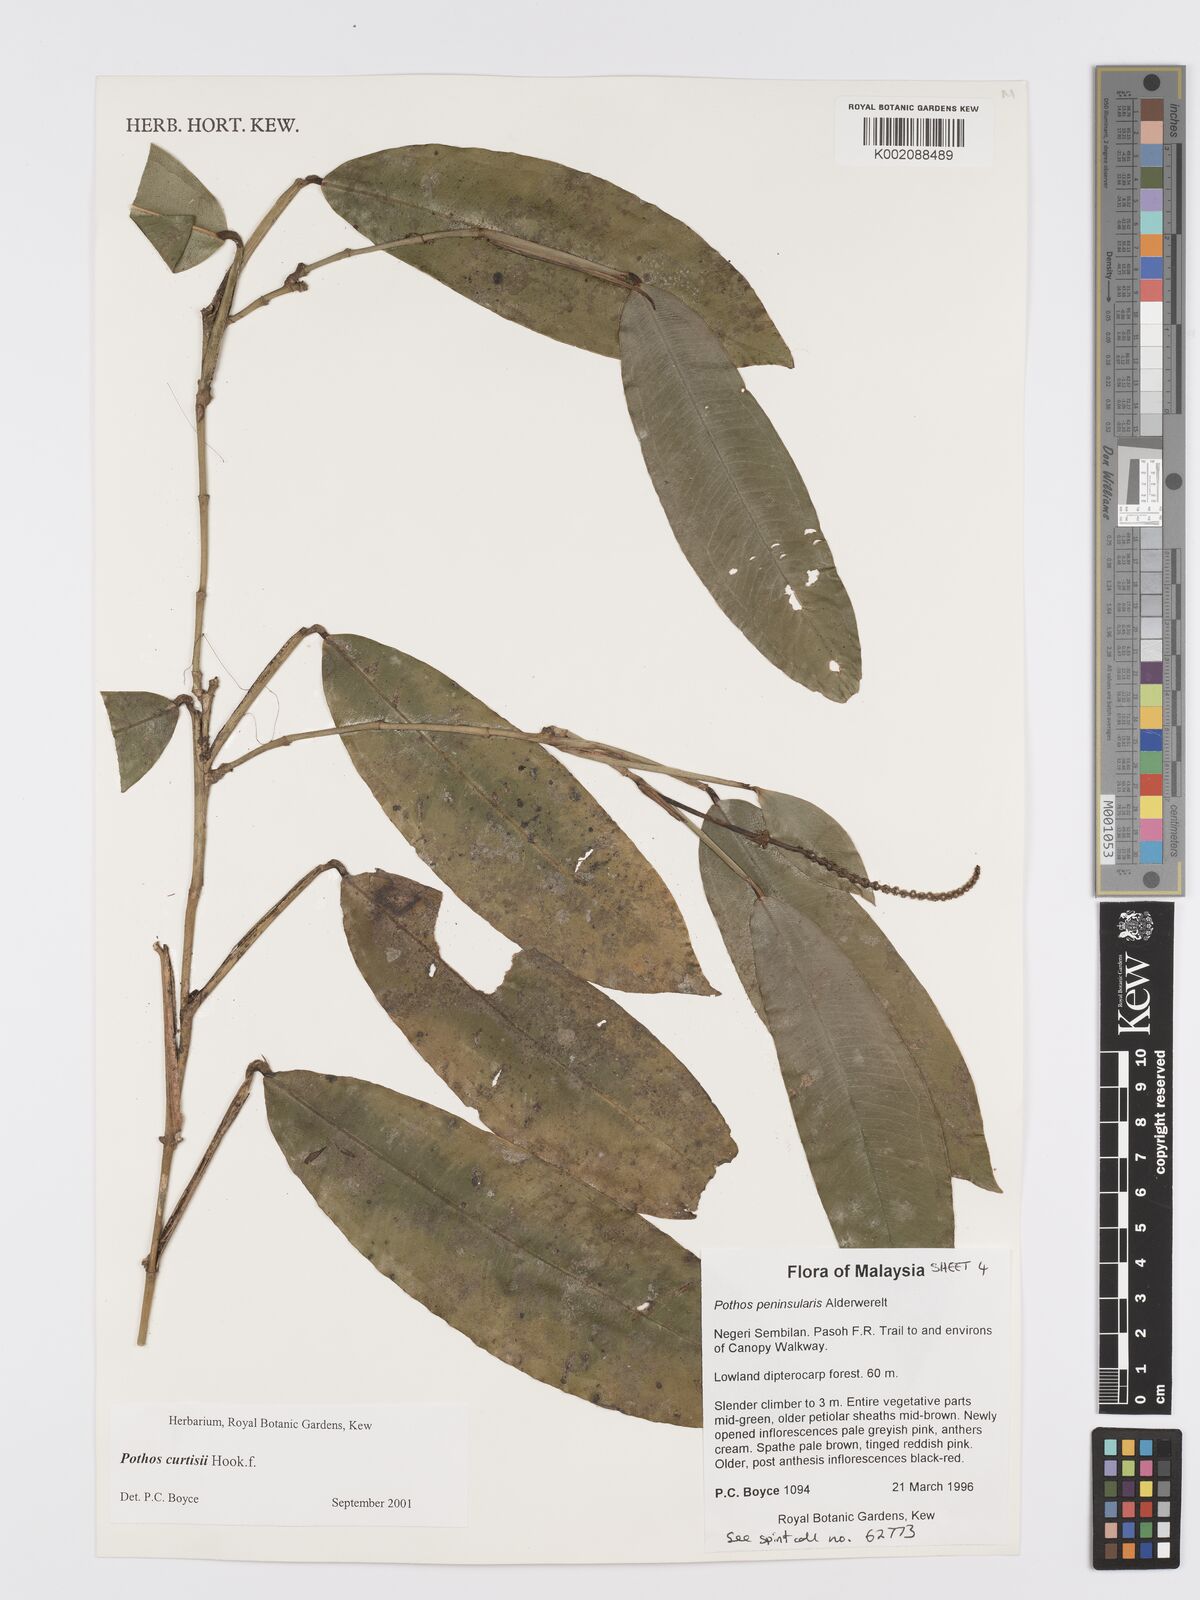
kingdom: Plantae
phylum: Tracheophyta
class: Liliopsida
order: Alismatales
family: Araceae
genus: Pothos
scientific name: Pothos curtisii
